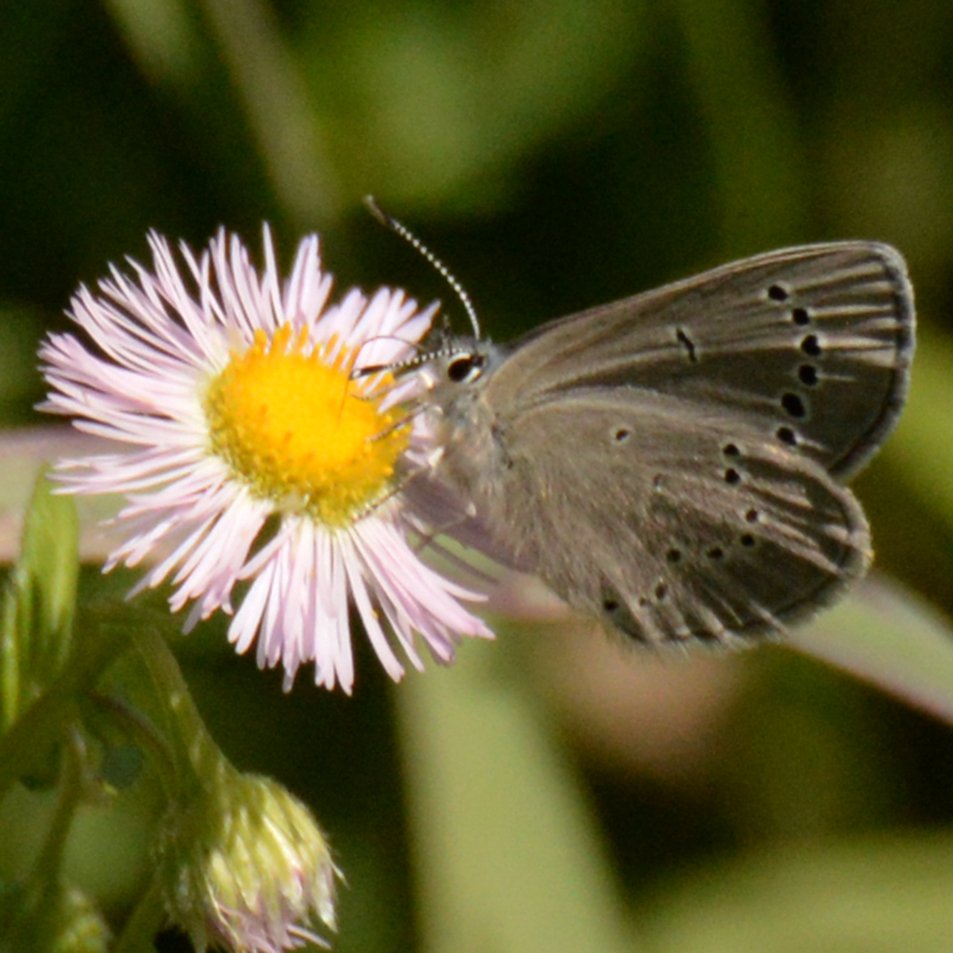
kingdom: Animalia
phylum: Arthropoda
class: Insecta
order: Lepidoptera
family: Lycaenidae
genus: Glaucopsyche
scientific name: Glaucopsyche lygdamus
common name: Silvery Blue
